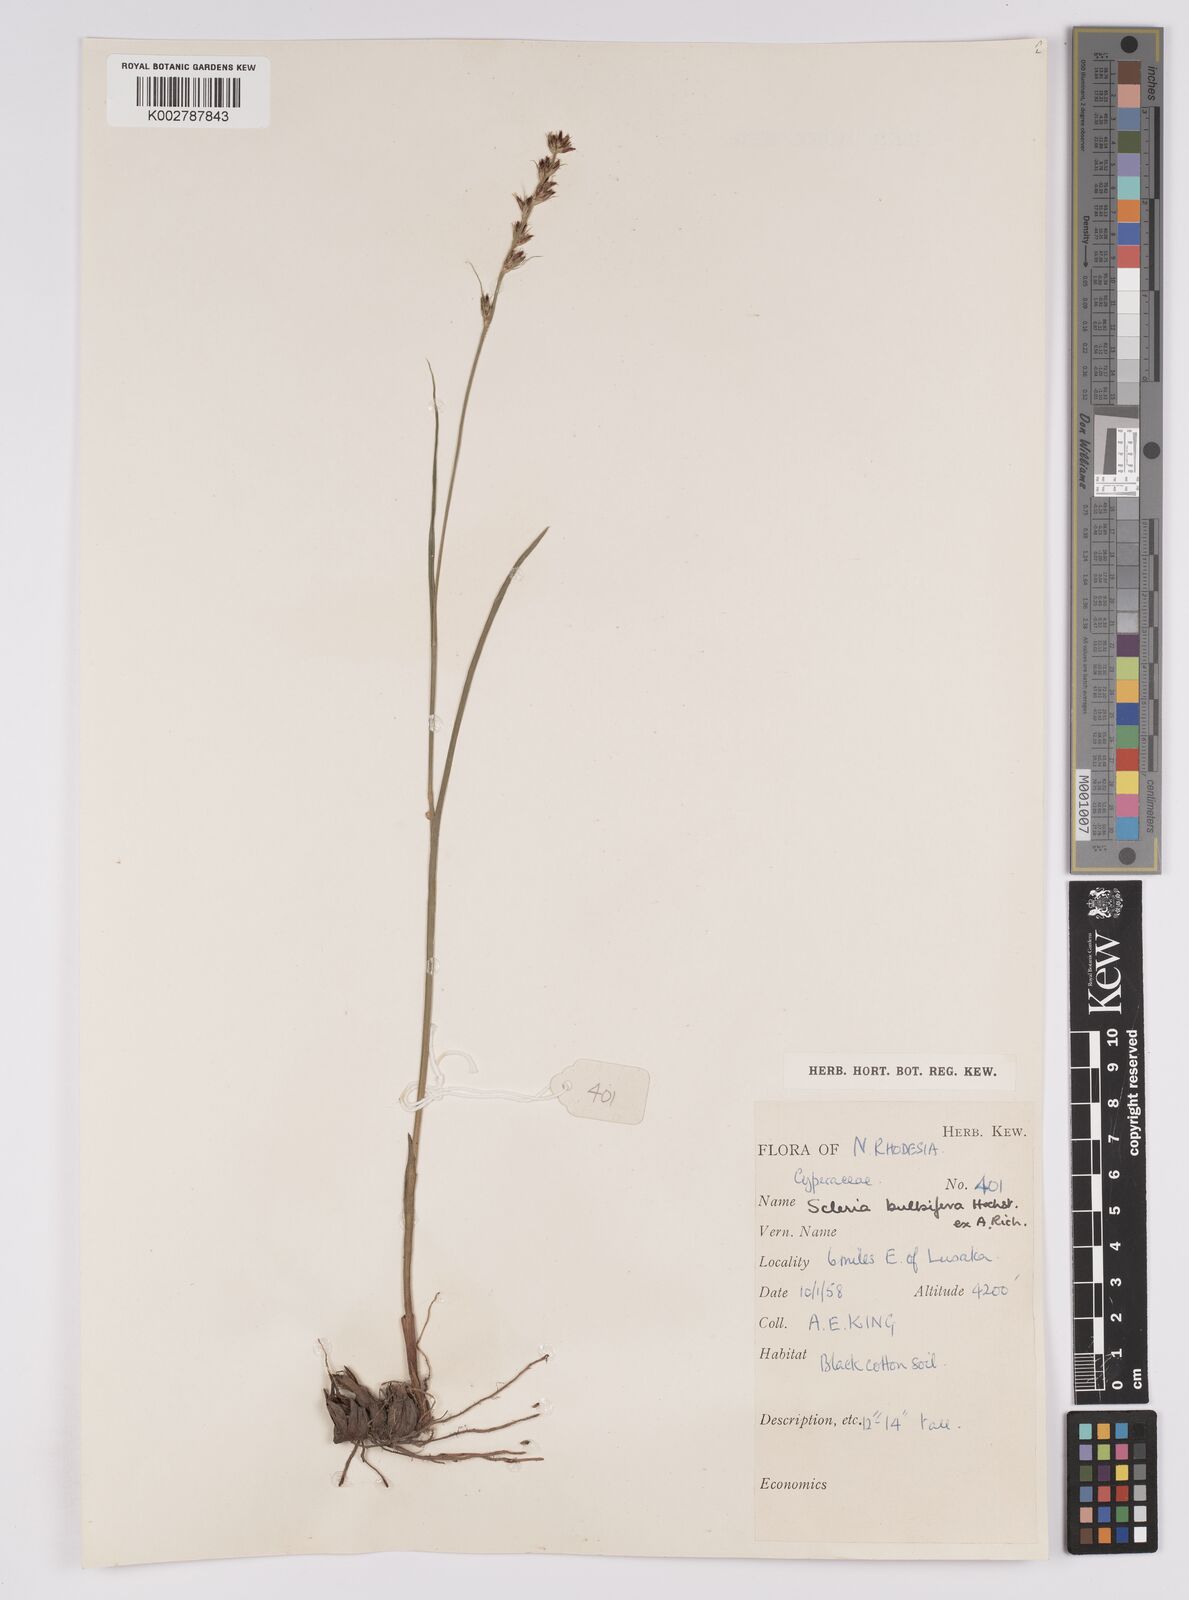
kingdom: Plantae
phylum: Tracheophyta
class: Liliopsida
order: Poales
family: Cyperaceae
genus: Scleria
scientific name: Scleria bulbifera
